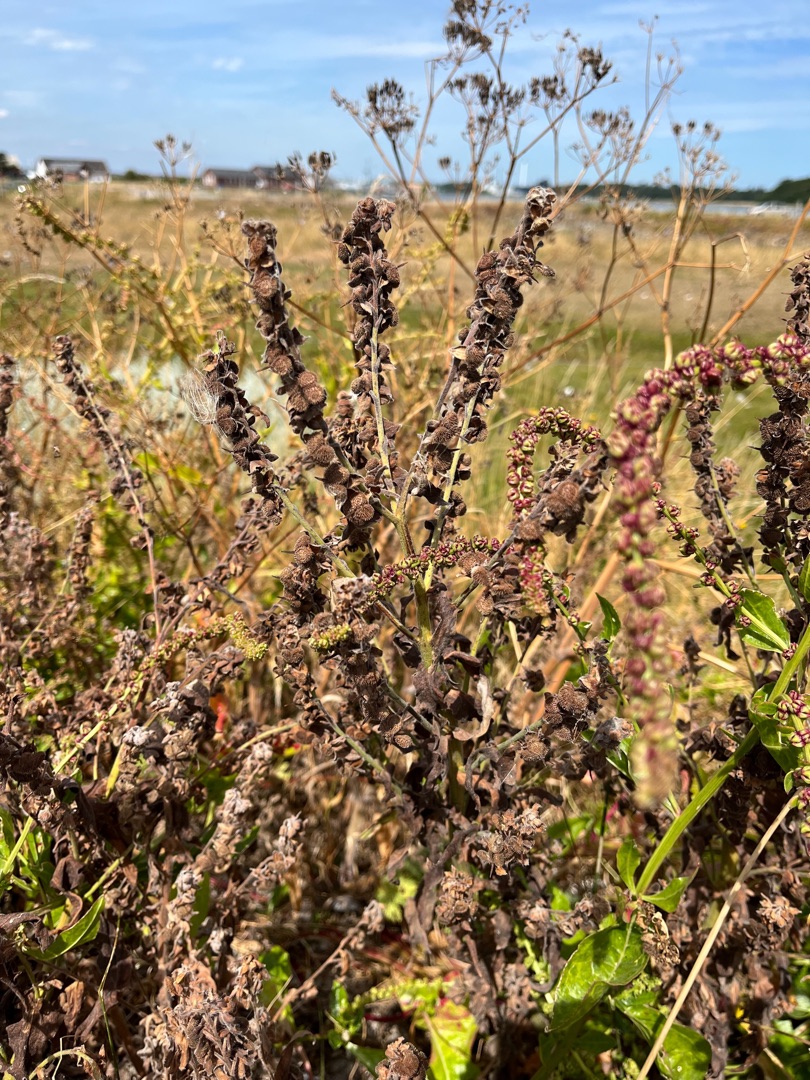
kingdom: Plantae
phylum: Tracheophyta
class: Magnoliopsida
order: Boraginales
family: Boraginaceae
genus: Cynoglossum
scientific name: Cynoglossum officinale
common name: Hundetunge
